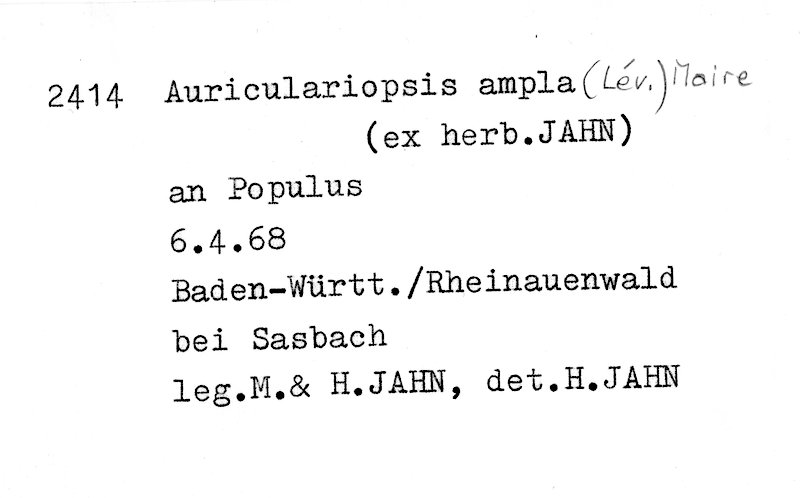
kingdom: Plantae
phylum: Tracheophyta
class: Magnoliopsida
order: Malpighiales
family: Salicaceae
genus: Populus
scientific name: Populus
